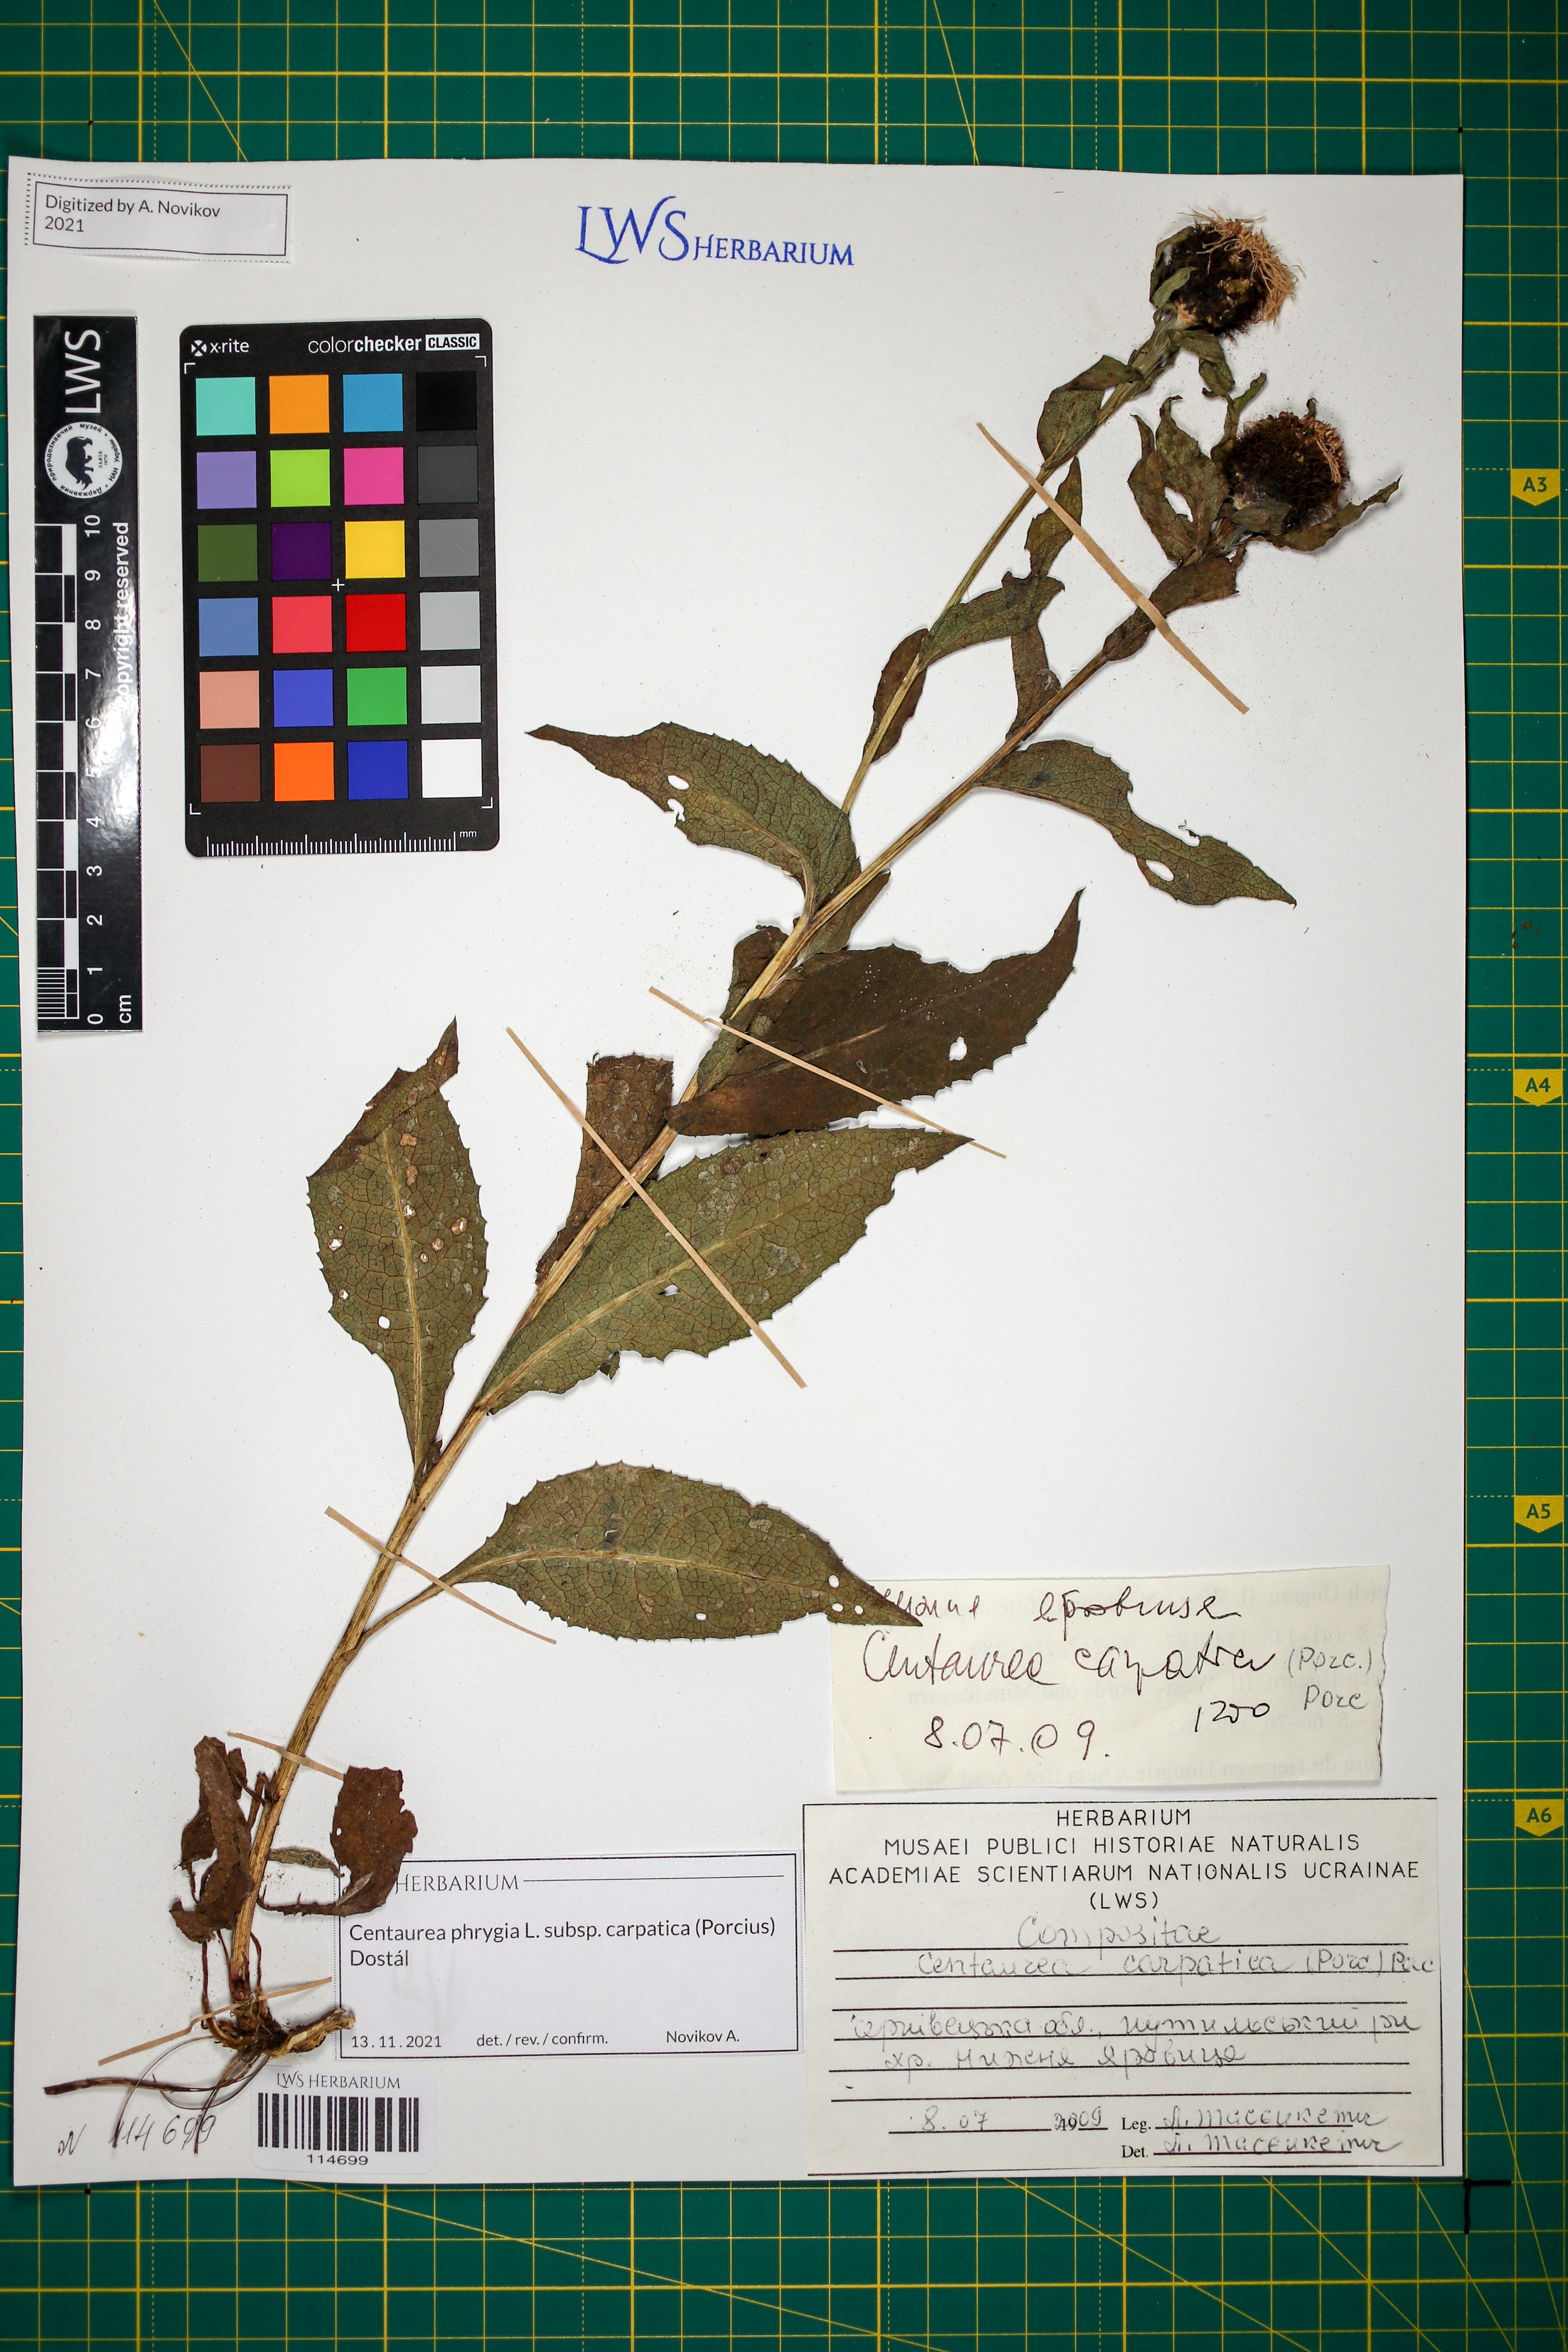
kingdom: Plantae
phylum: Tracheophyta
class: Magnoliopsida
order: Asterales
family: Asteraceae
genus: Centaurea
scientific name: Centaurea phrygia
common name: Wig knapweed
